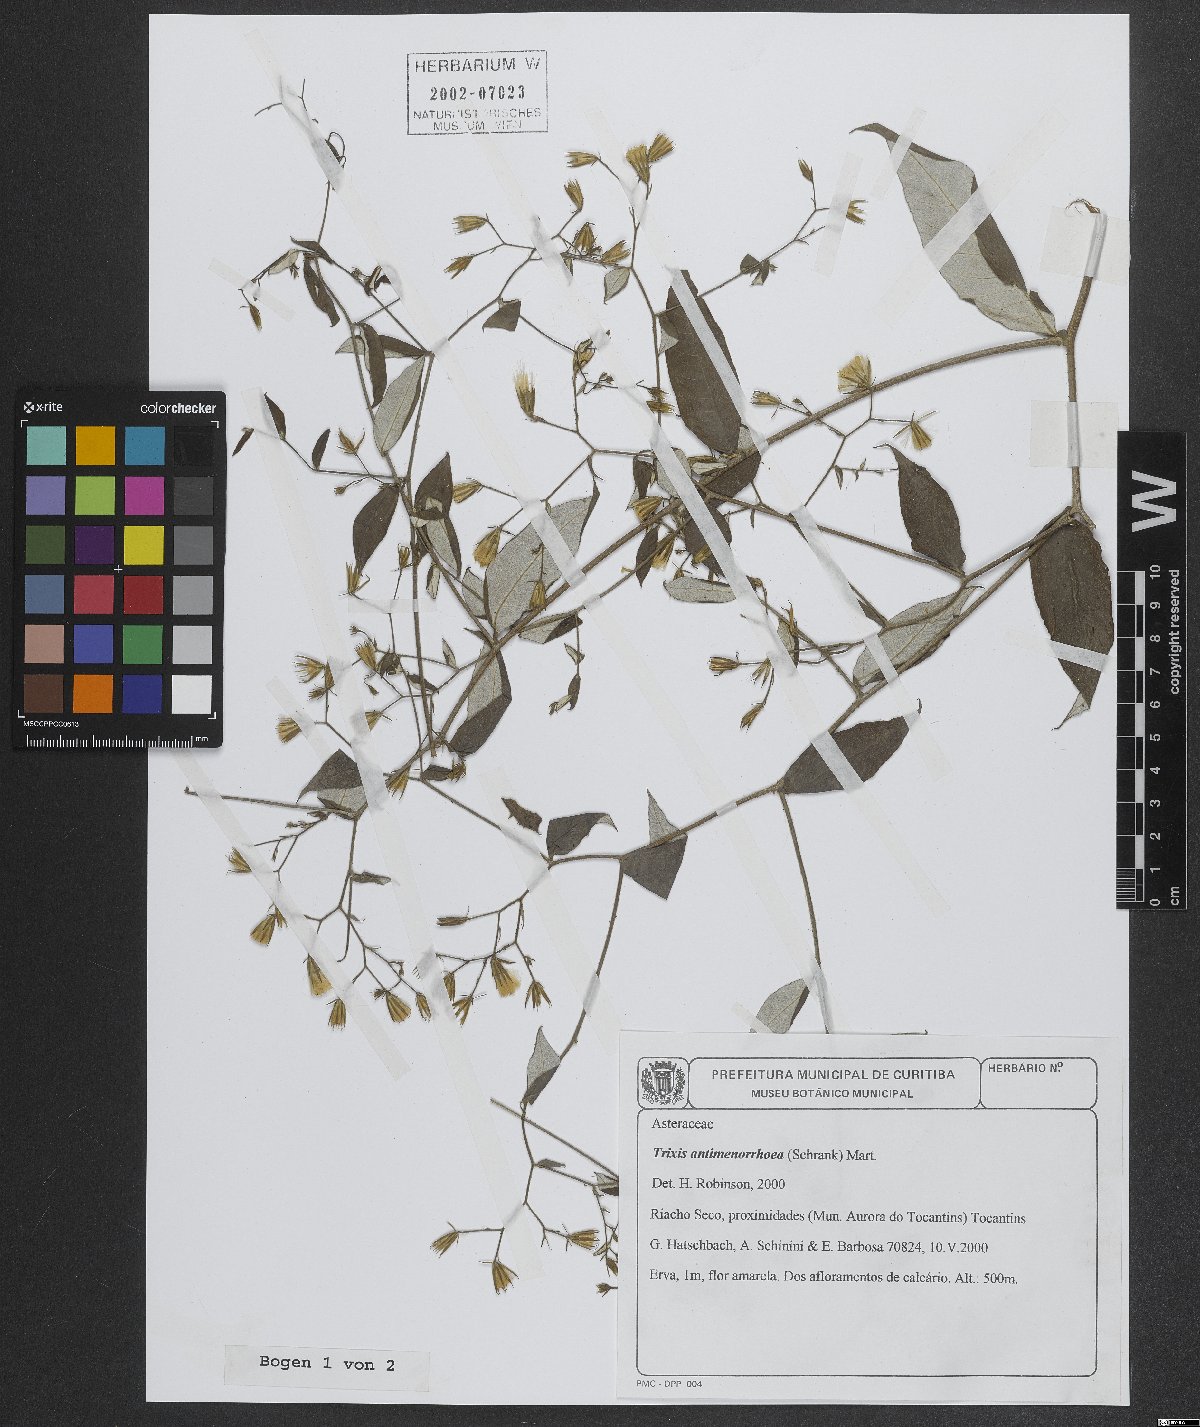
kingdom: Plantae
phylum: Tracheophyta
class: Magnoliopsida
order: Asterales
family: Asteraceae
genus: Trixis
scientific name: Trixis divaricata
